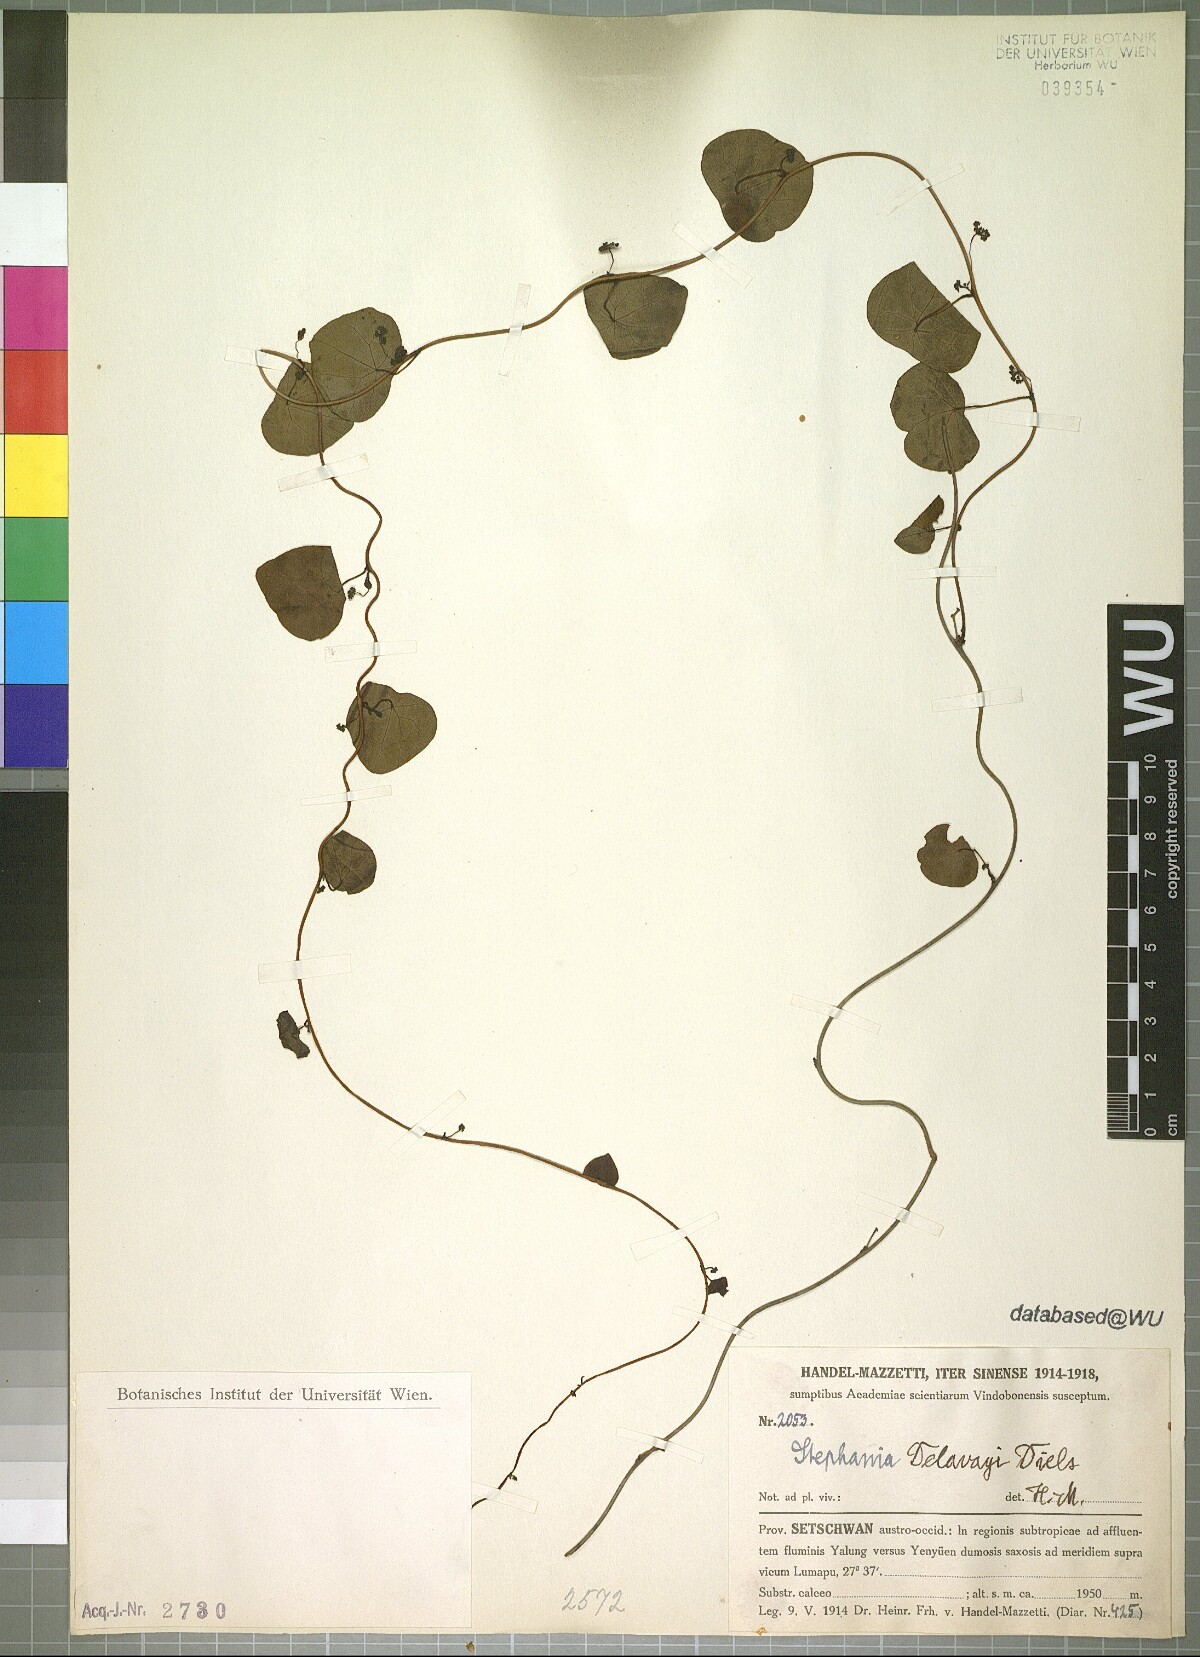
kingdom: Plantae
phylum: Tracheophyta
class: Magnoliopsida
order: Ranunculales
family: Menispermaceae
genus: Stephania
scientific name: Stephania delavayi
